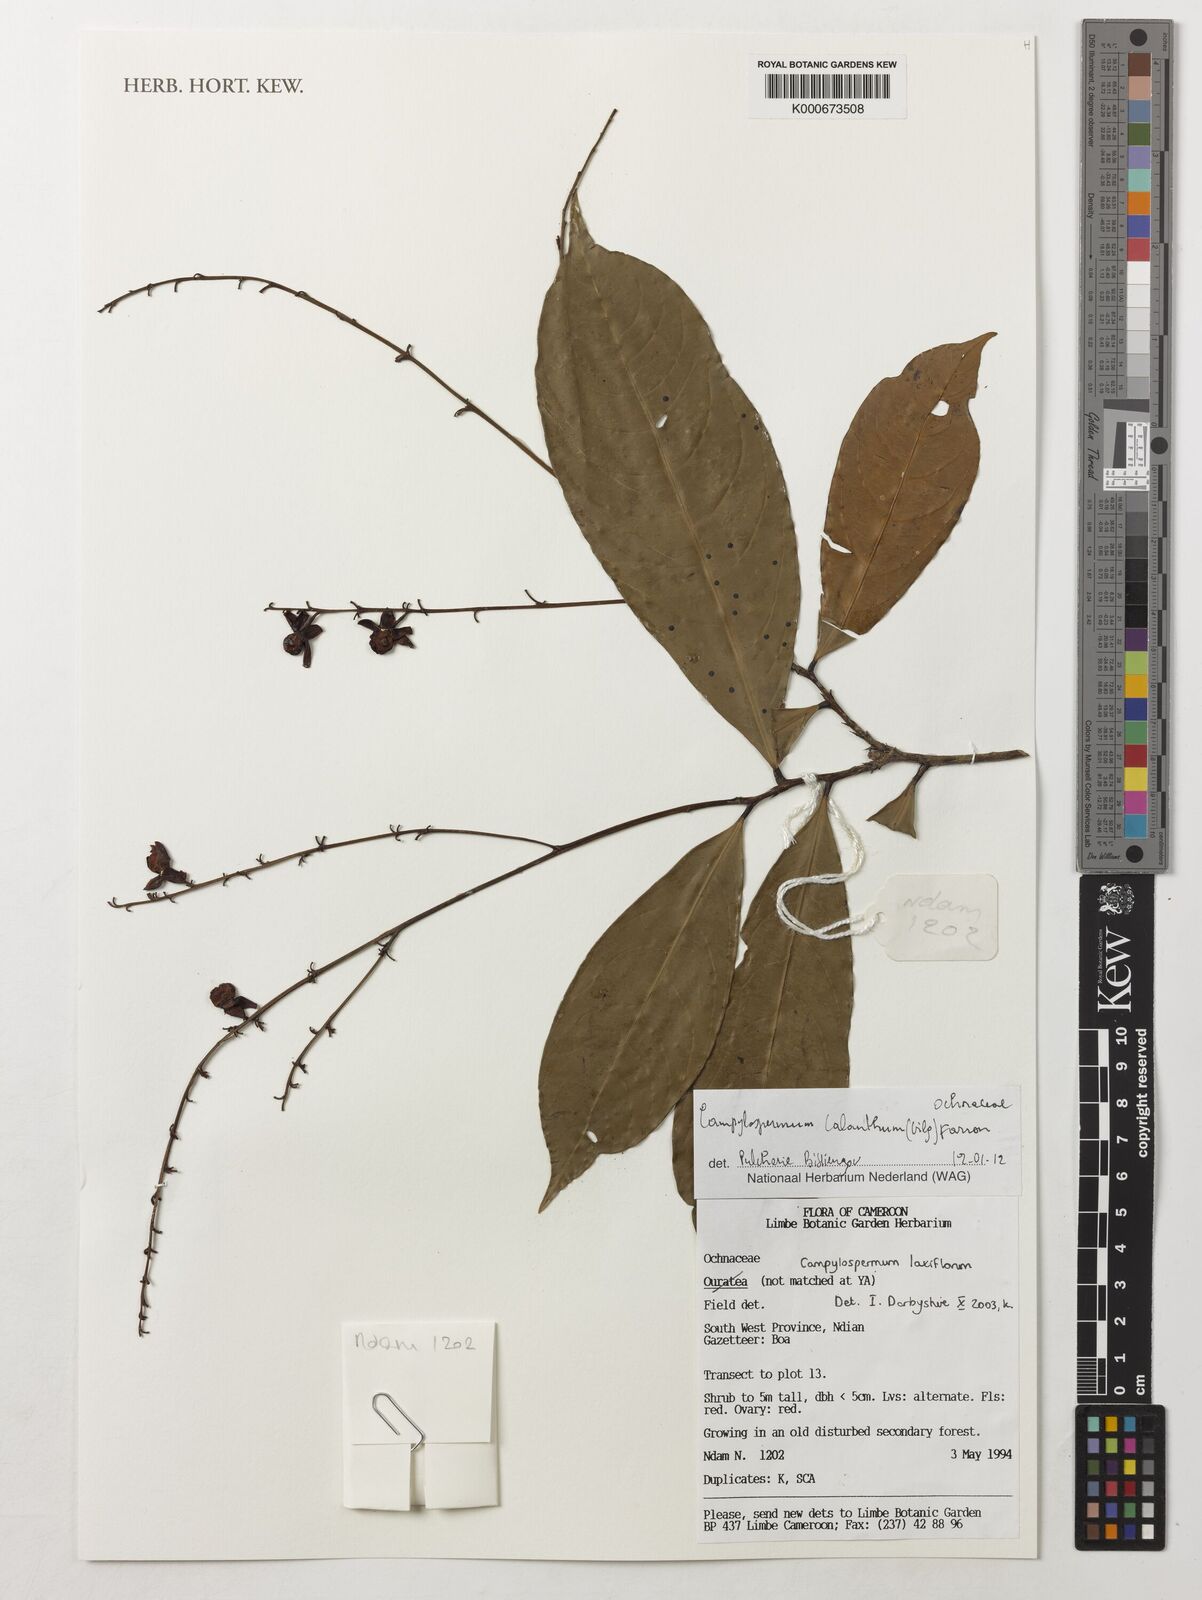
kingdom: Plantae
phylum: Tracheophyta
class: Magnoliopsida
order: Malpighiales
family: Ochnaceae
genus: Campylospermum
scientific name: Campylospermum calanthum
